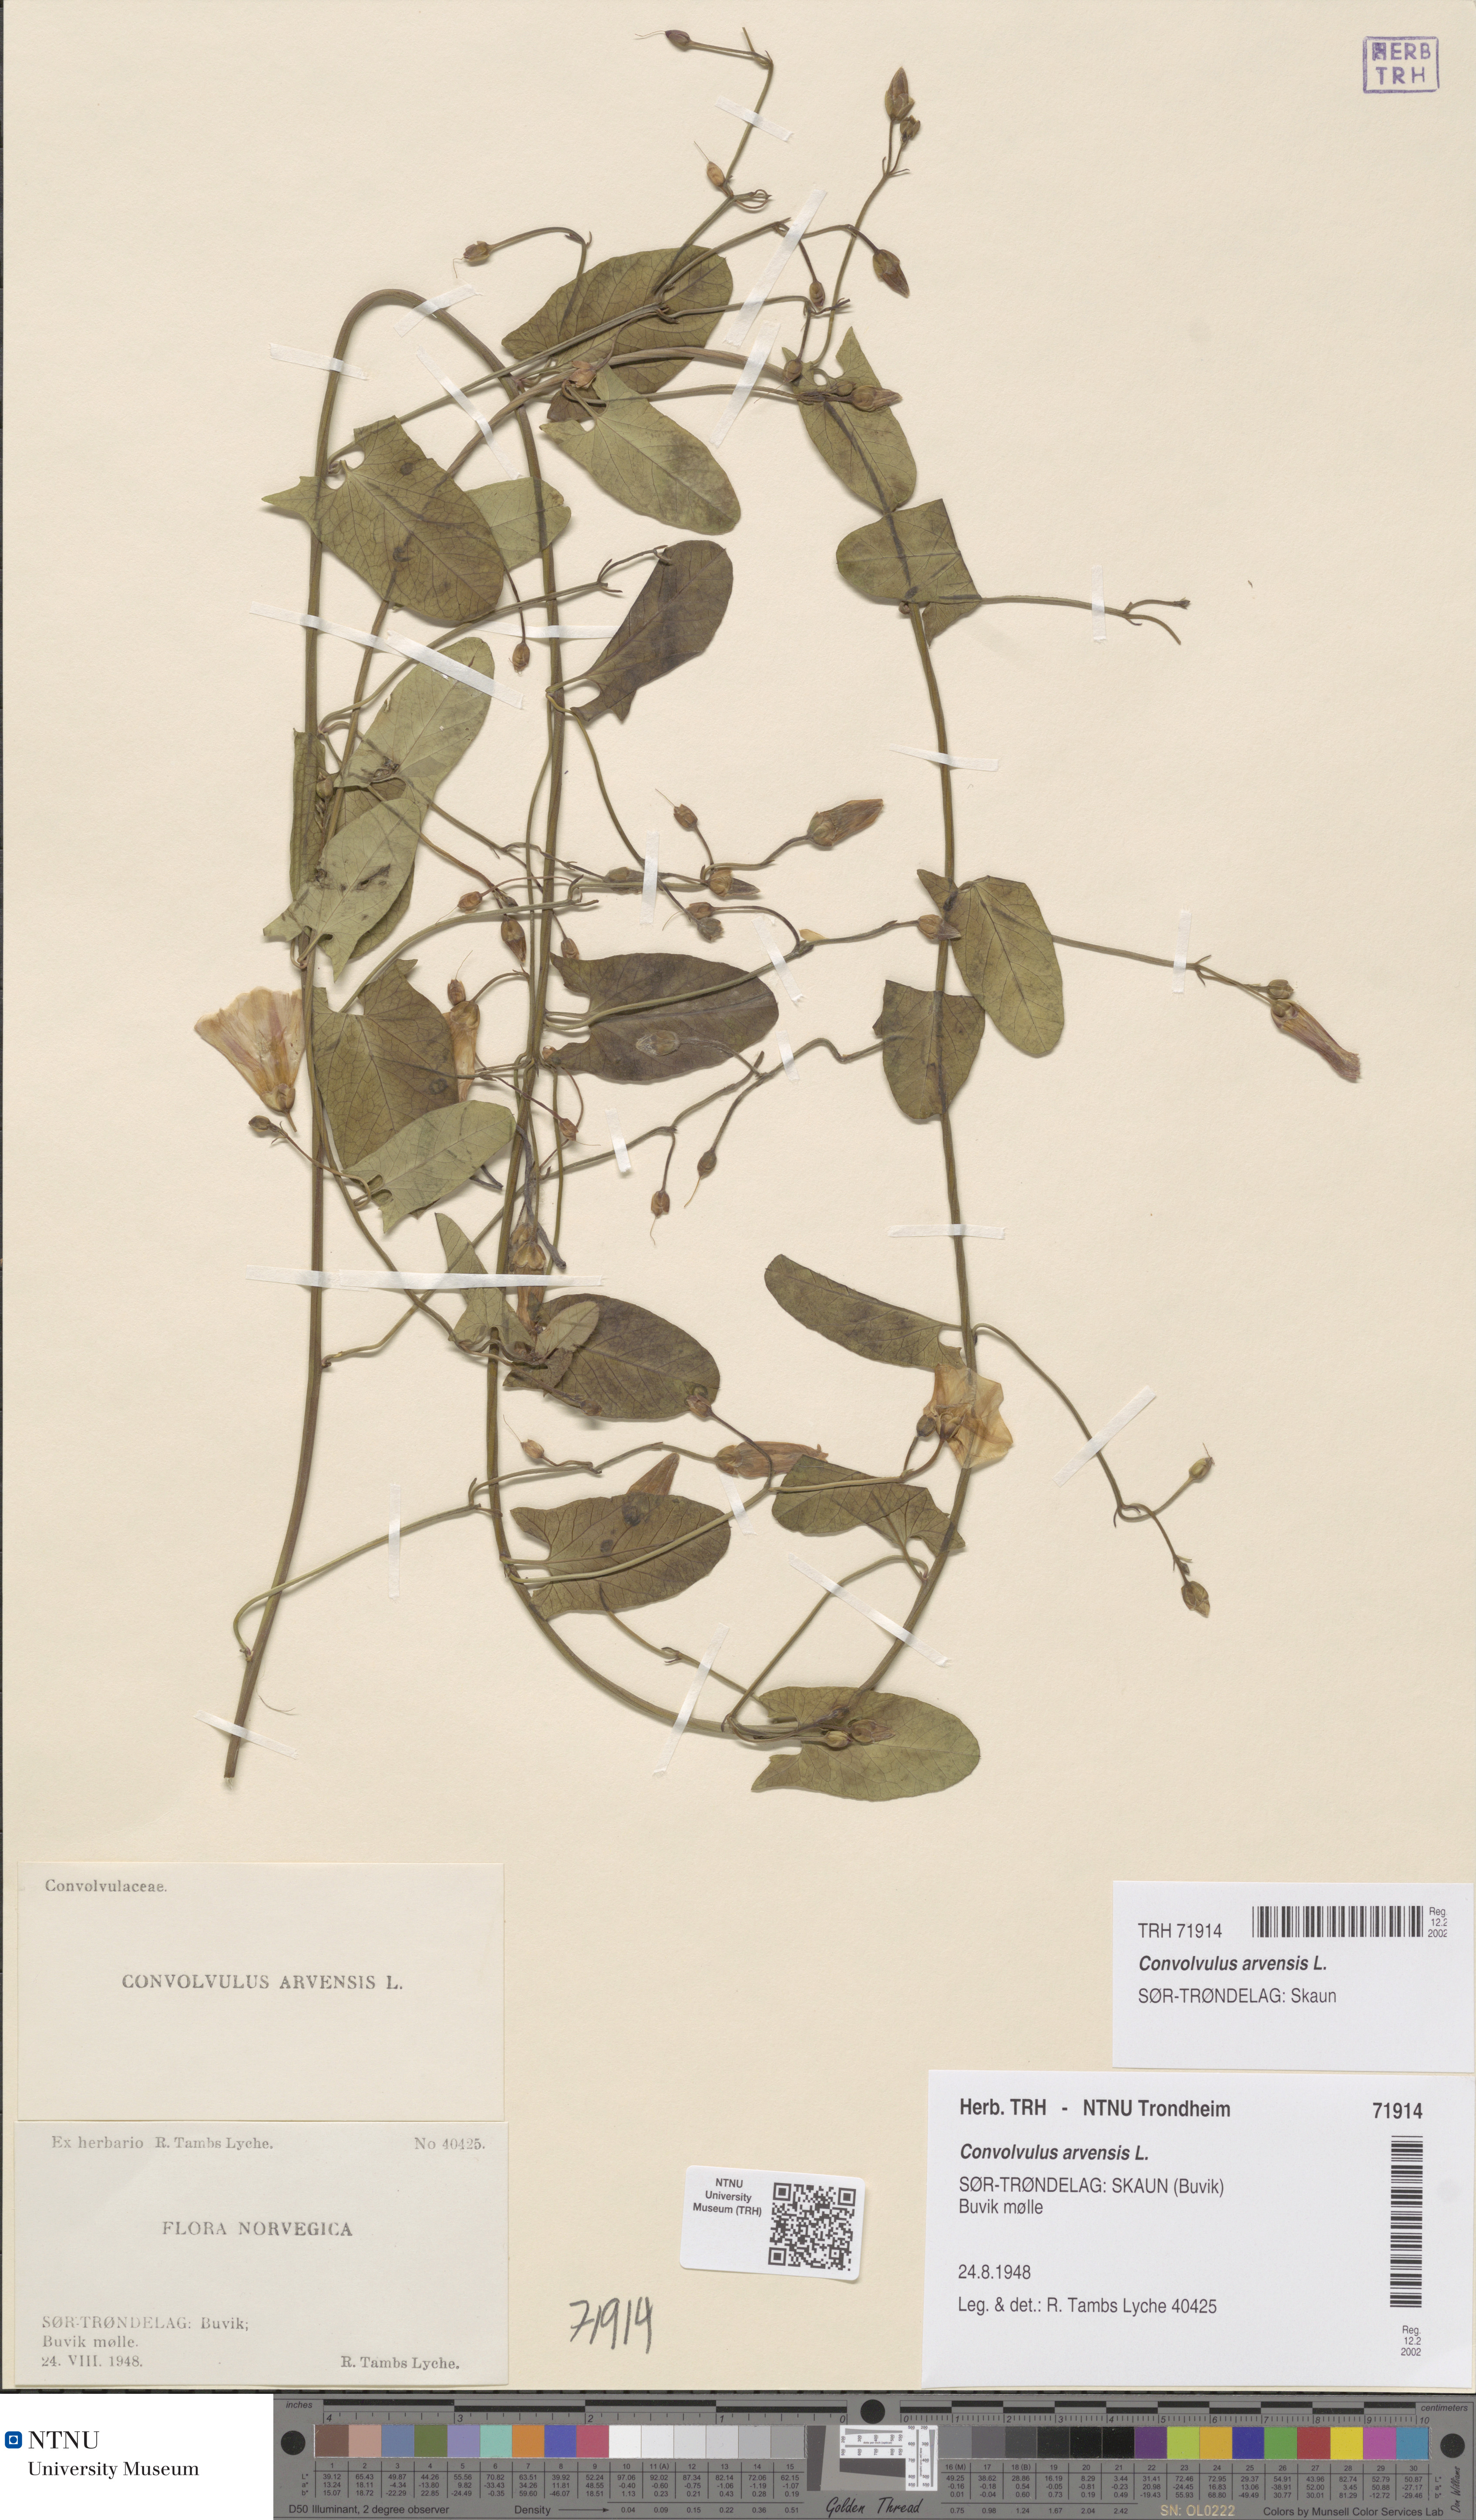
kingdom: Plantae
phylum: Tracheophyta
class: Magnoliopsida
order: Solanales
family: Convolvulaceae
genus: Convolvulus
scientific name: Convolvulus arvensis
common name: Field bindweed
